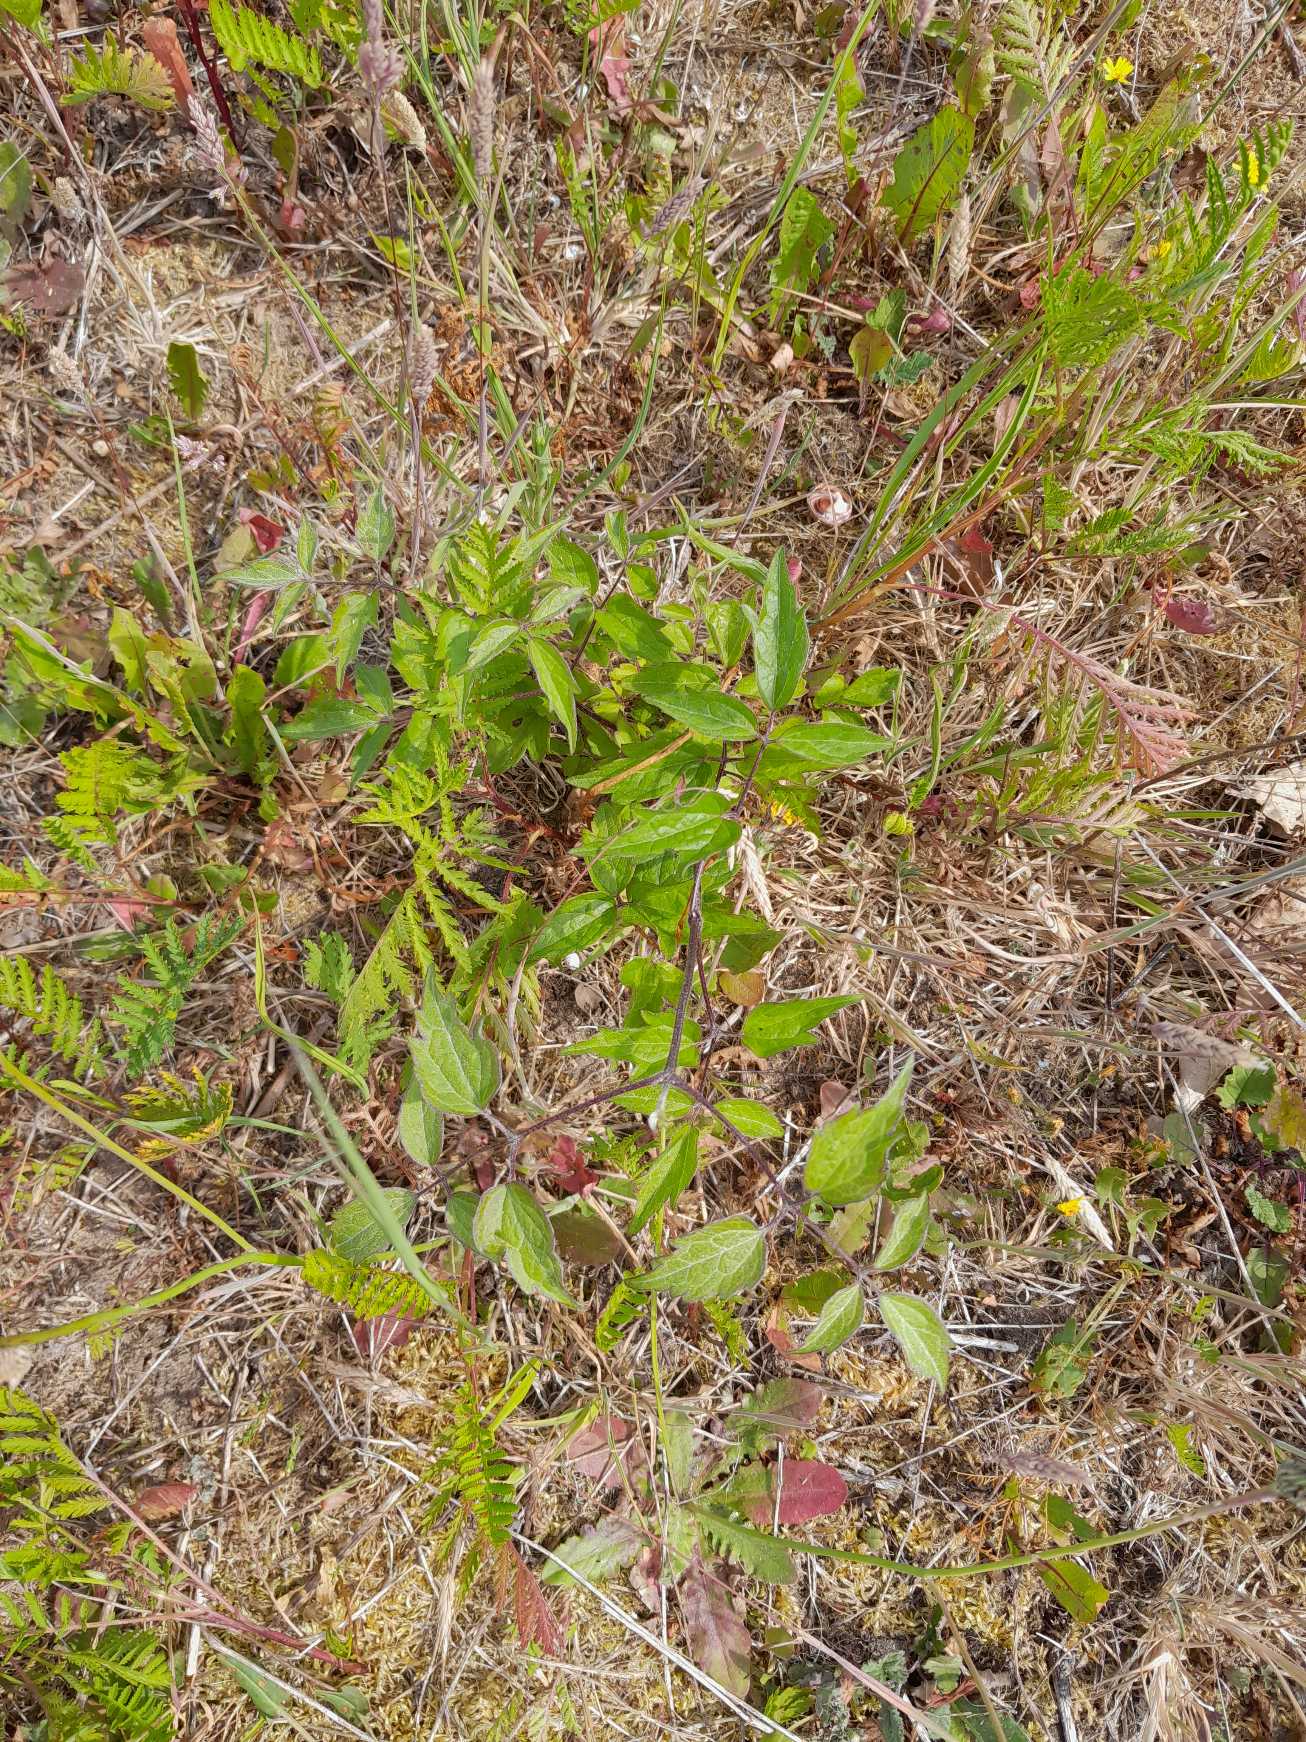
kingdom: Plantae
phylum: Tracheophyta
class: Magnoliopsida
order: Ranunculales
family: Ranunculaceae
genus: Clematis
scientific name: Clematis vitalba
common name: Skovranke
